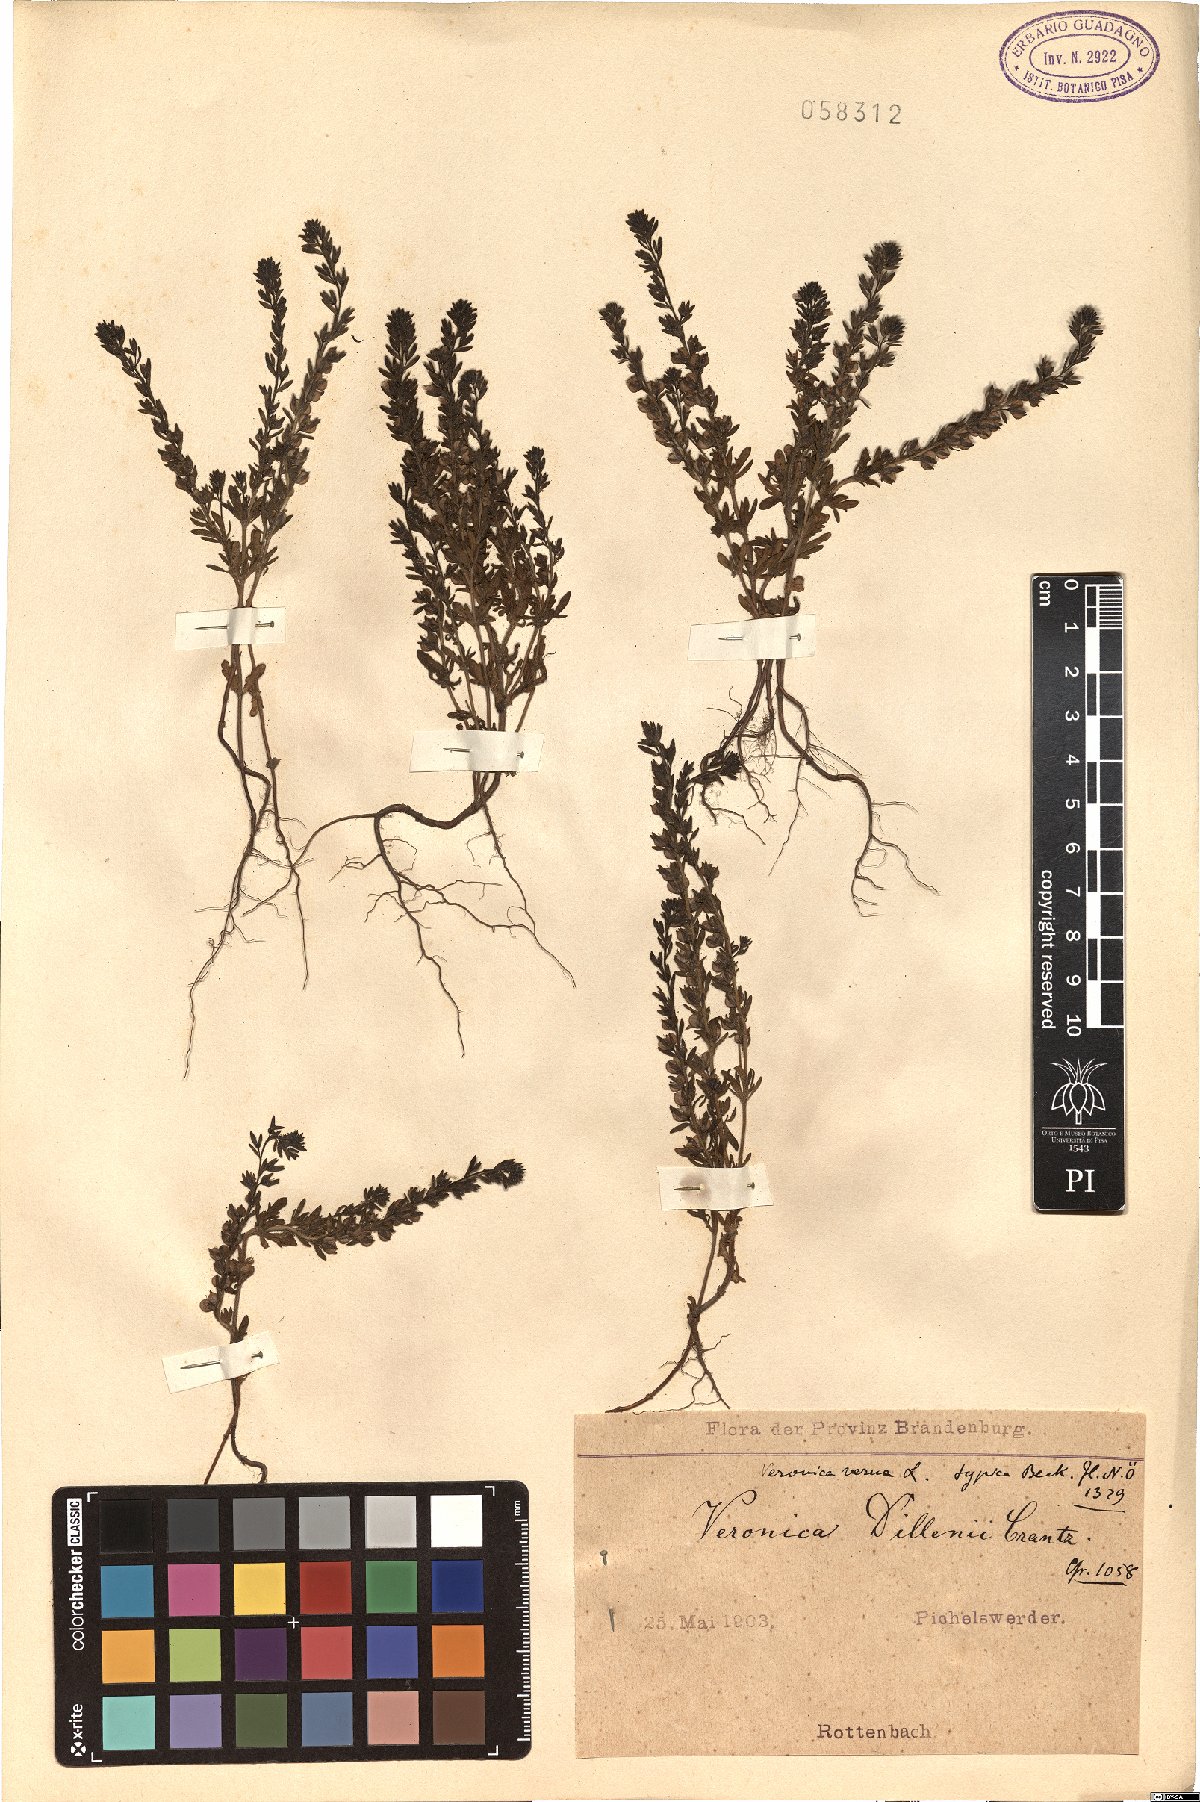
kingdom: Plantae
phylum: Tracheophyta
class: Magnoliopsida
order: Lamiales
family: Plantaginaceae
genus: Veronica
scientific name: Veronica dillenii
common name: Dillenius' speedwell
